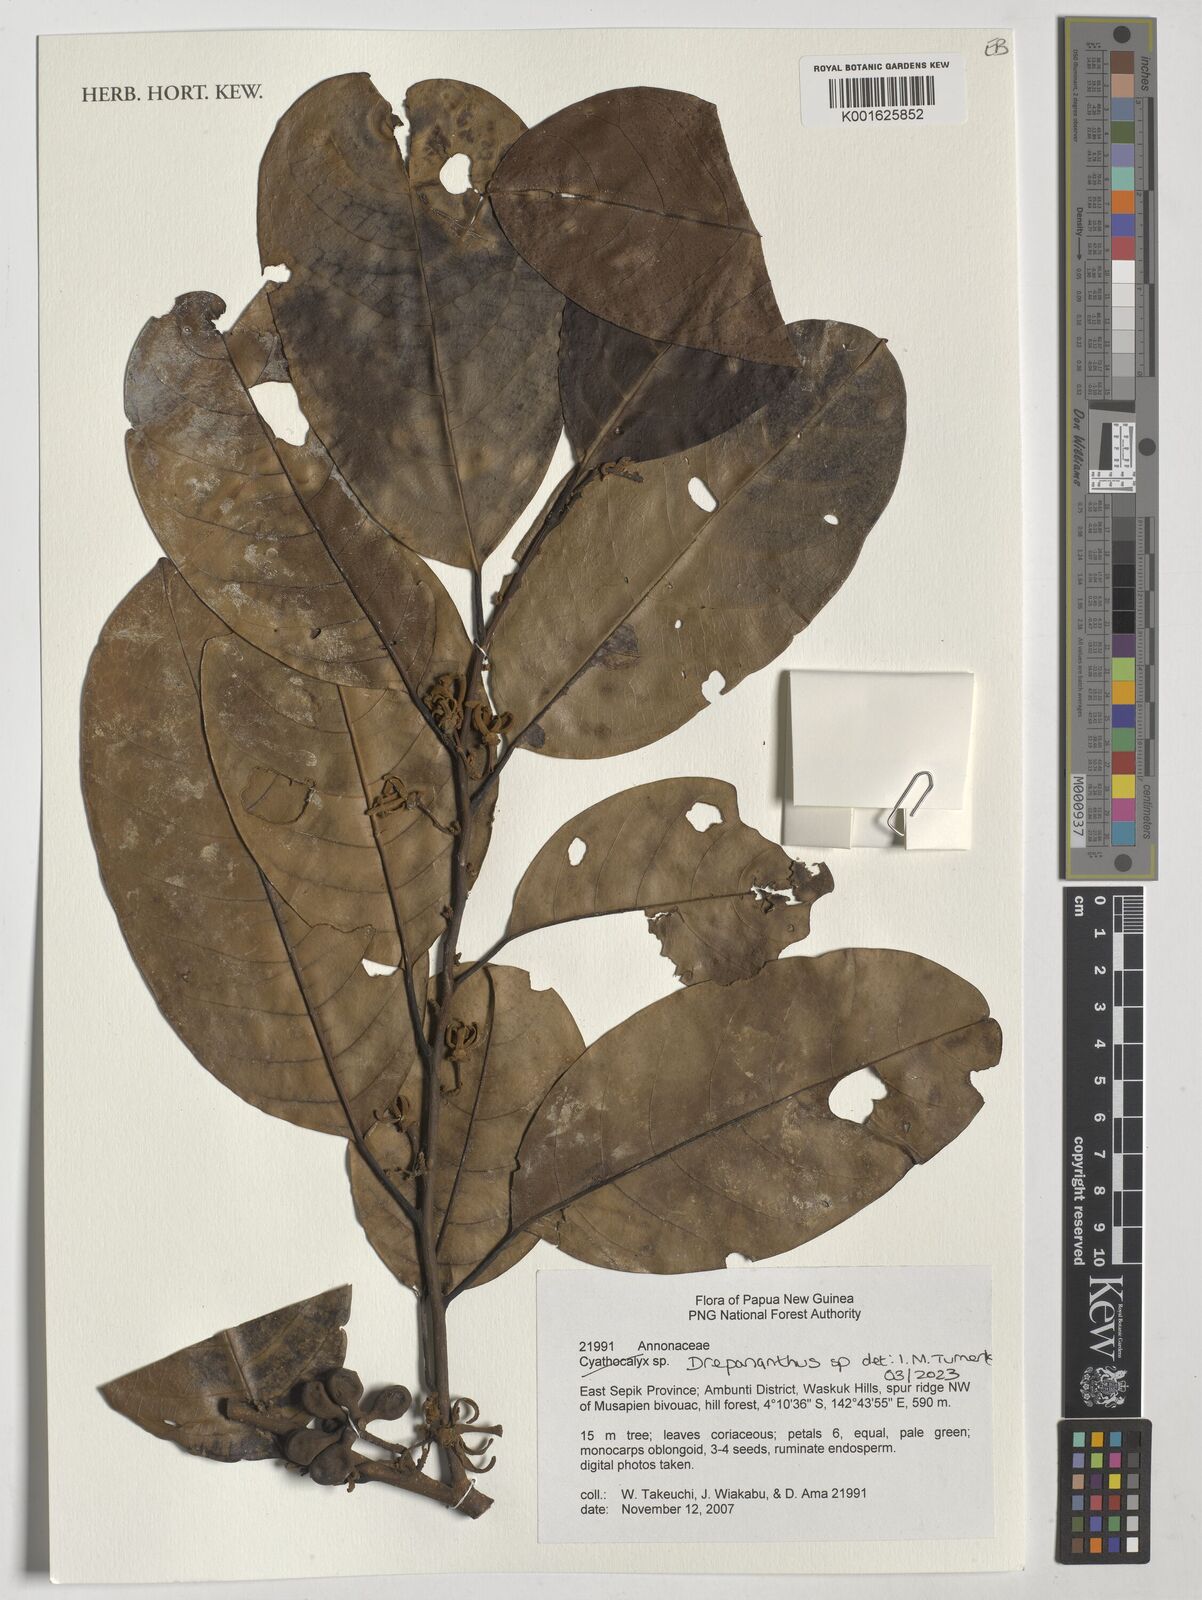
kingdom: Plantae
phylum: Tracheophyta
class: Magnoliopsida
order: Magnoliales
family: Annonaceae
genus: Drepananthus
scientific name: Drepananthus
